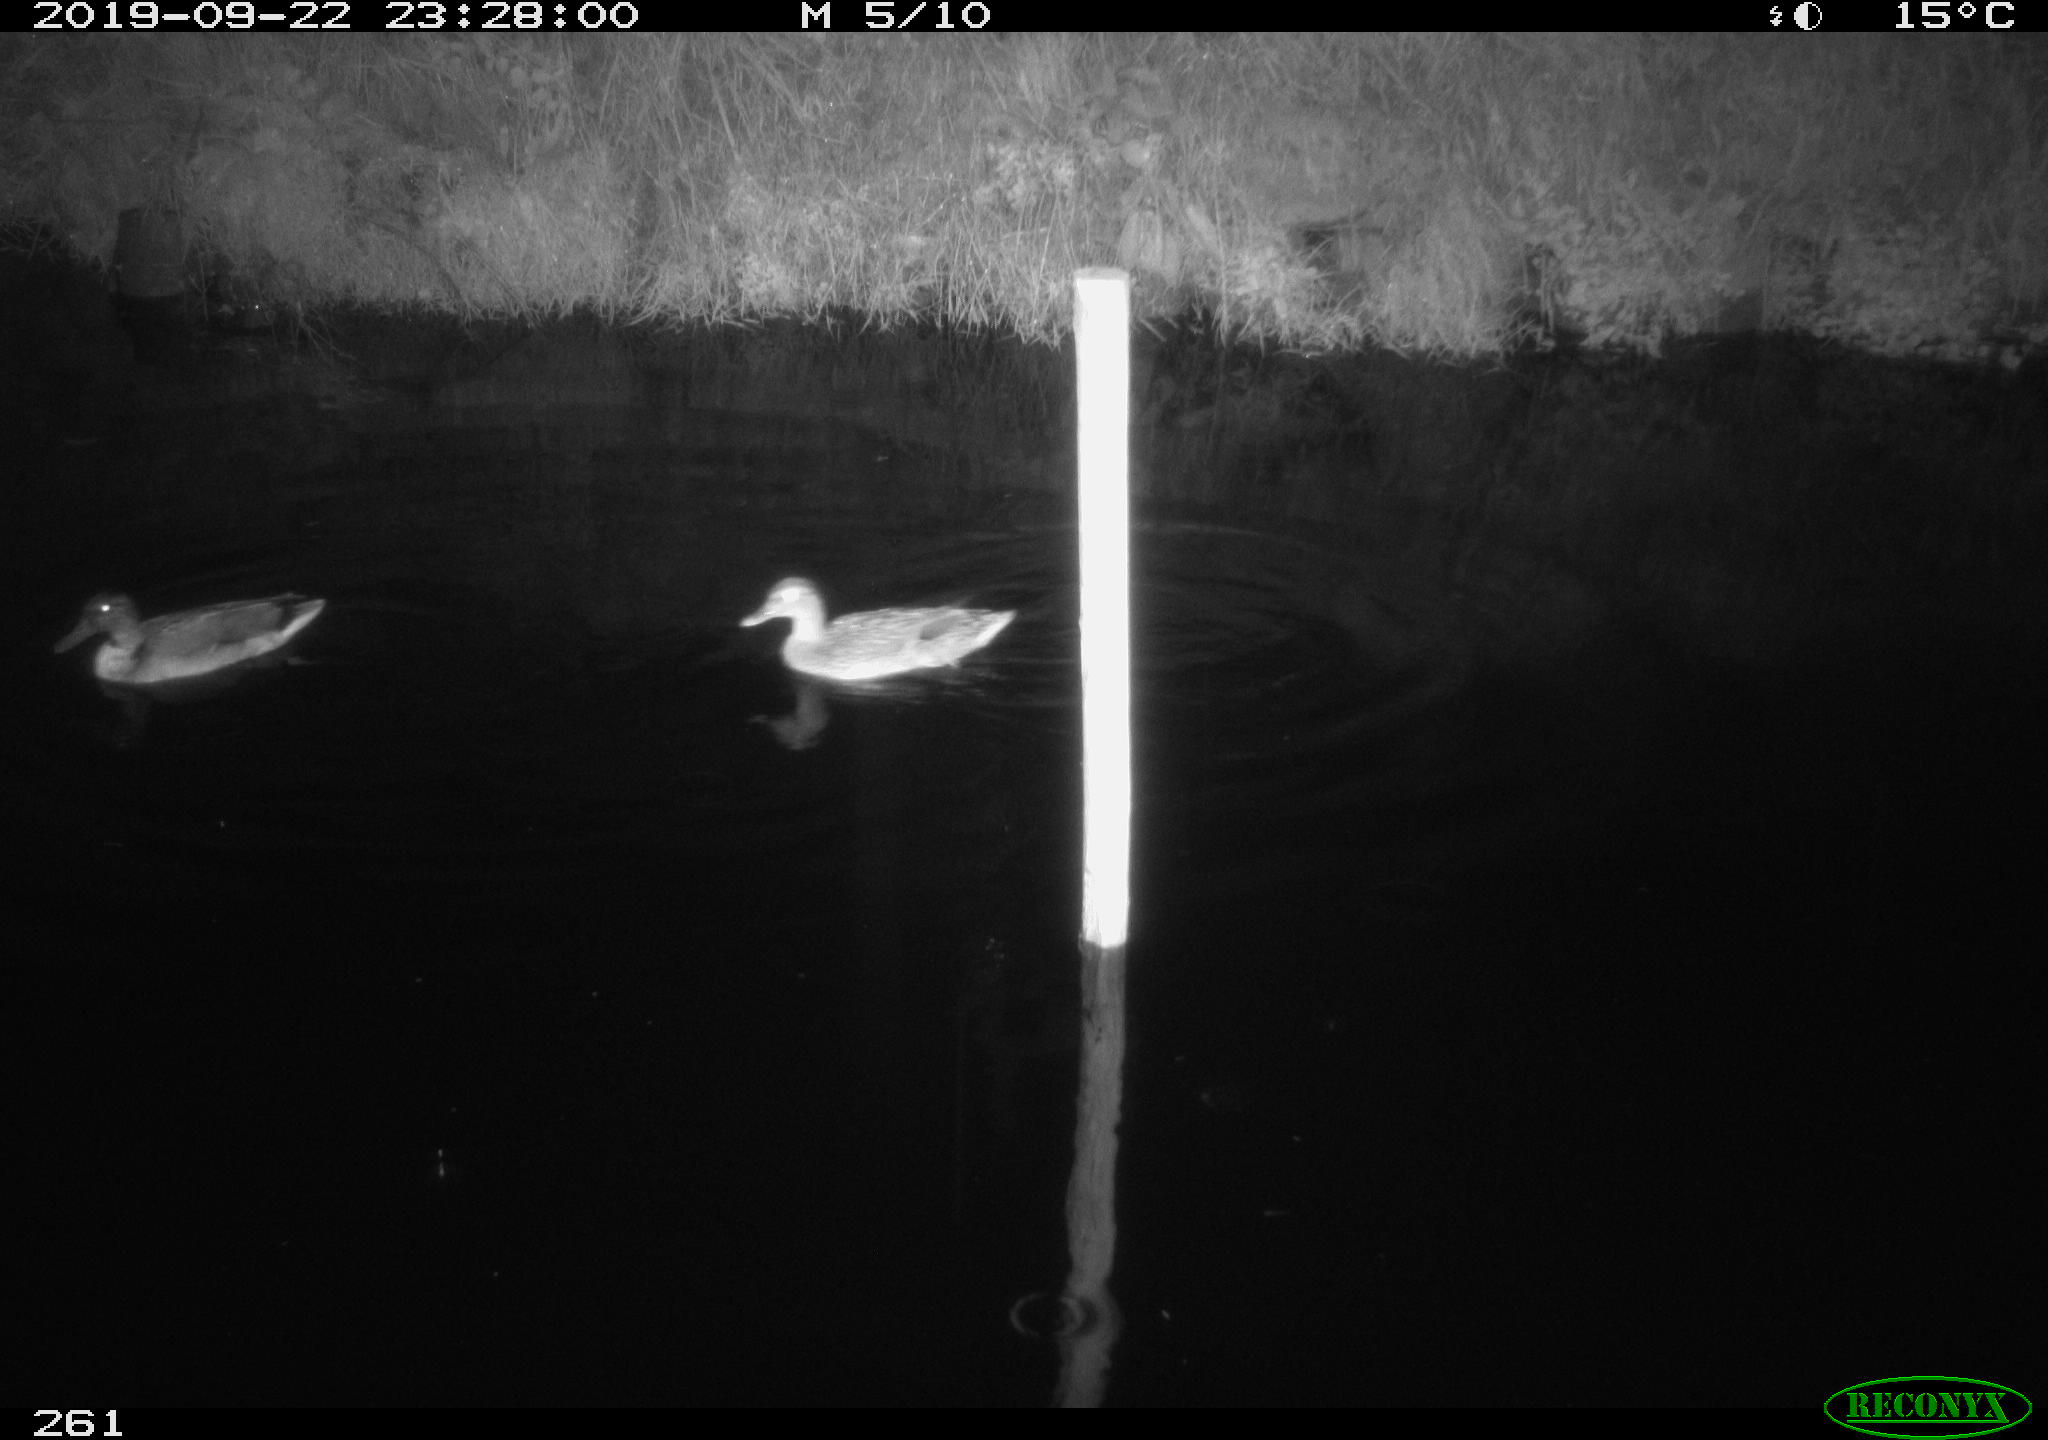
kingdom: Animalia
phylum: Chordata
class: Aves
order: Anseriformes
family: Anatidae
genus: Anas
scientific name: Anas platyrhynchos
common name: Mallard
